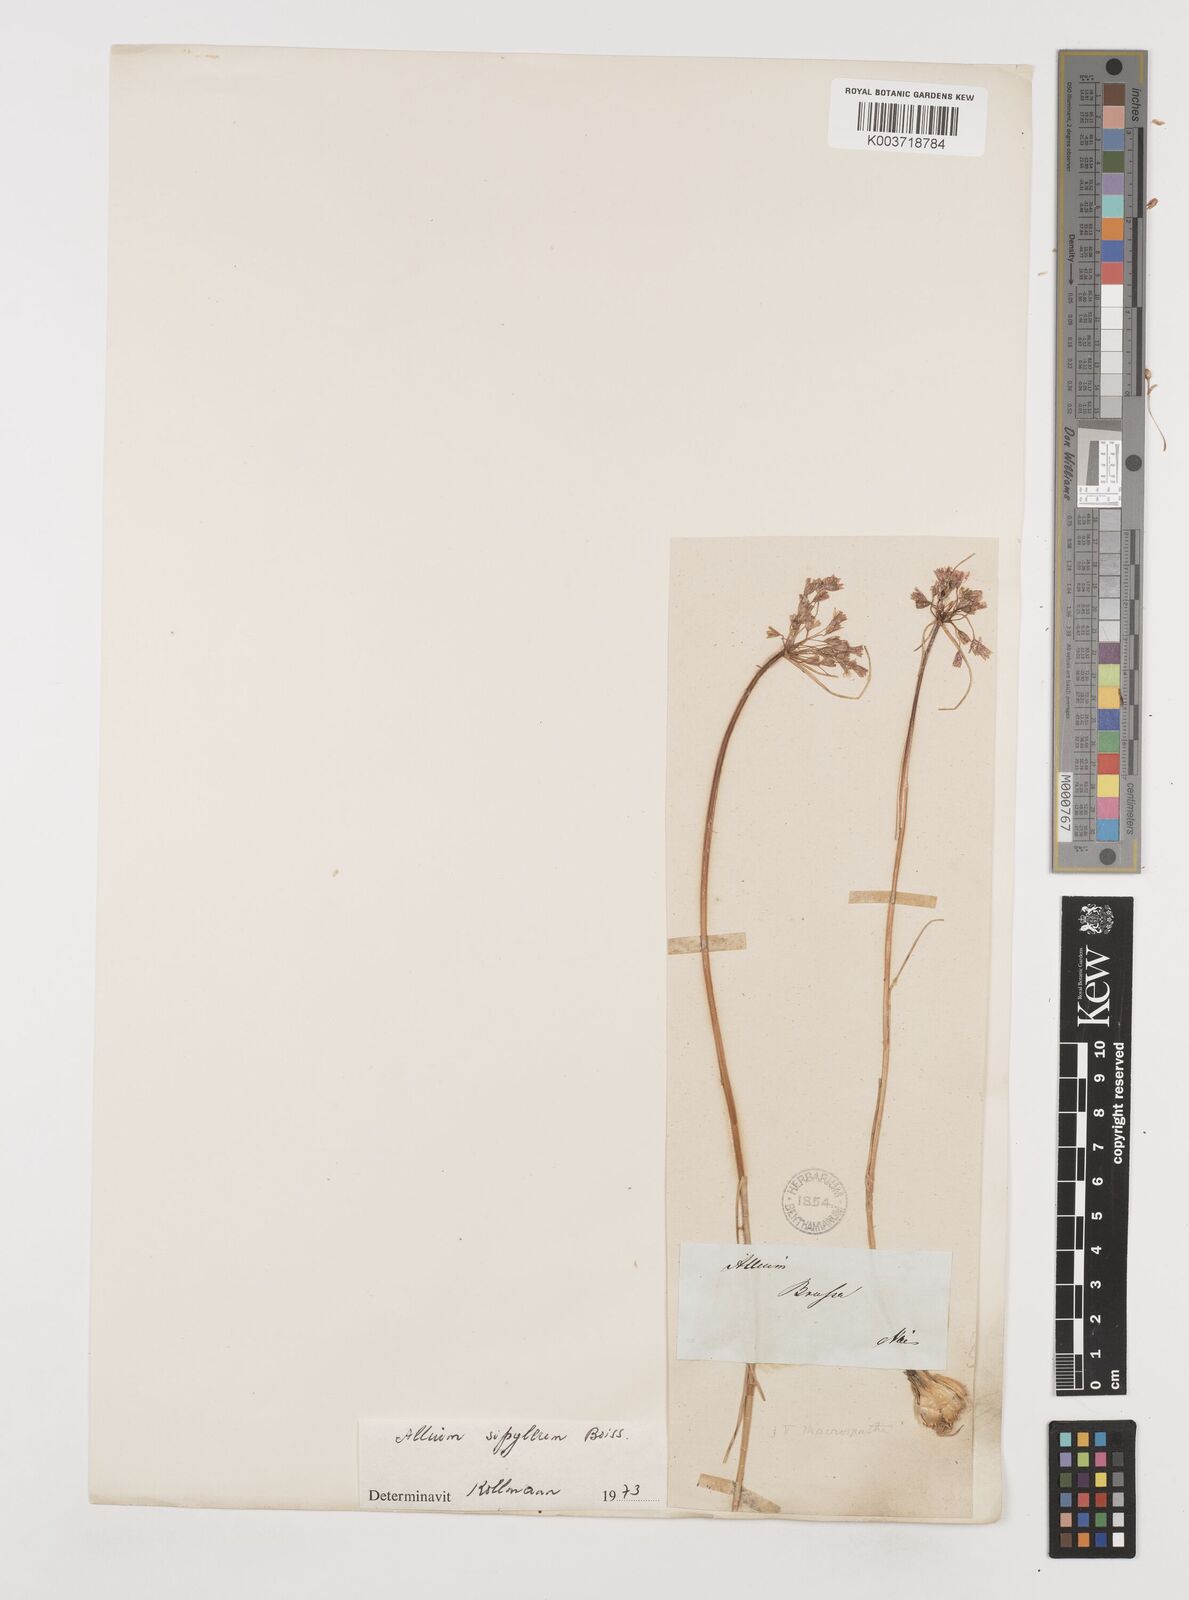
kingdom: Plantae
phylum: Tracheophyta
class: Liliopsida
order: Asparagales
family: Amaryllidaceae
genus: Allium
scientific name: Allium paniculatum
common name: Pale garlic
